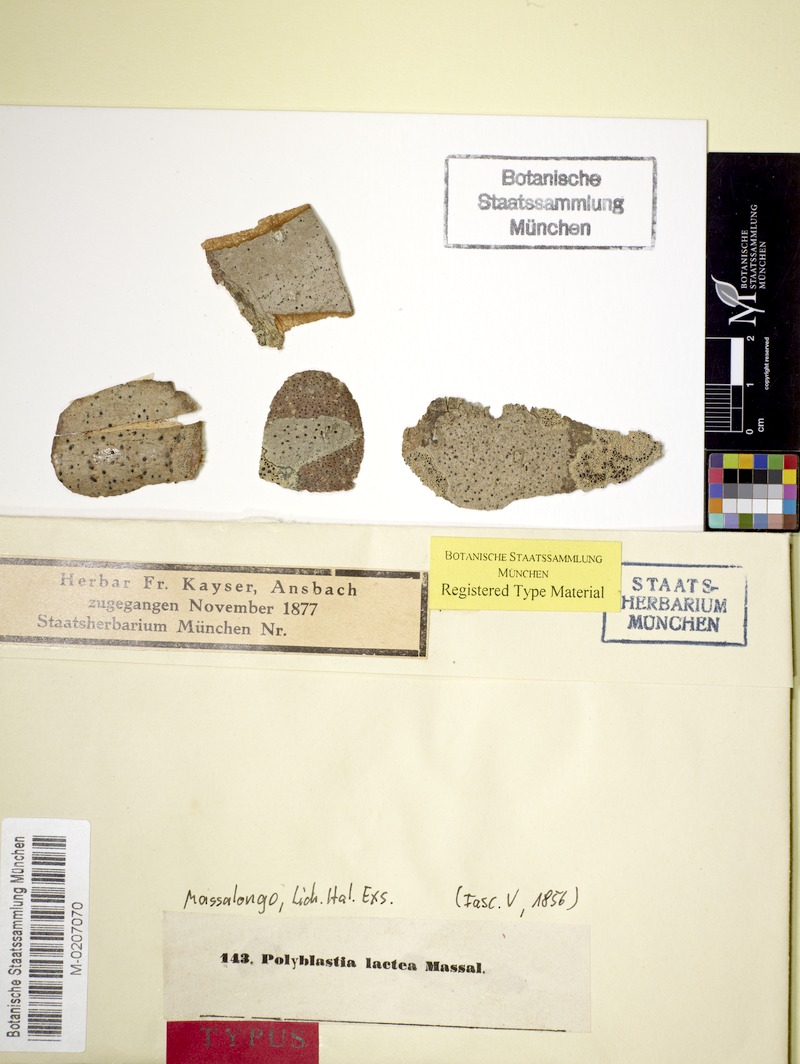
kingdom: Fungi
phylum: Ascomycota
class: Lecanoromycetes
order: Ostropales
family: Thelenellaceae
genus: Julella
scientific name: Julella lactea
